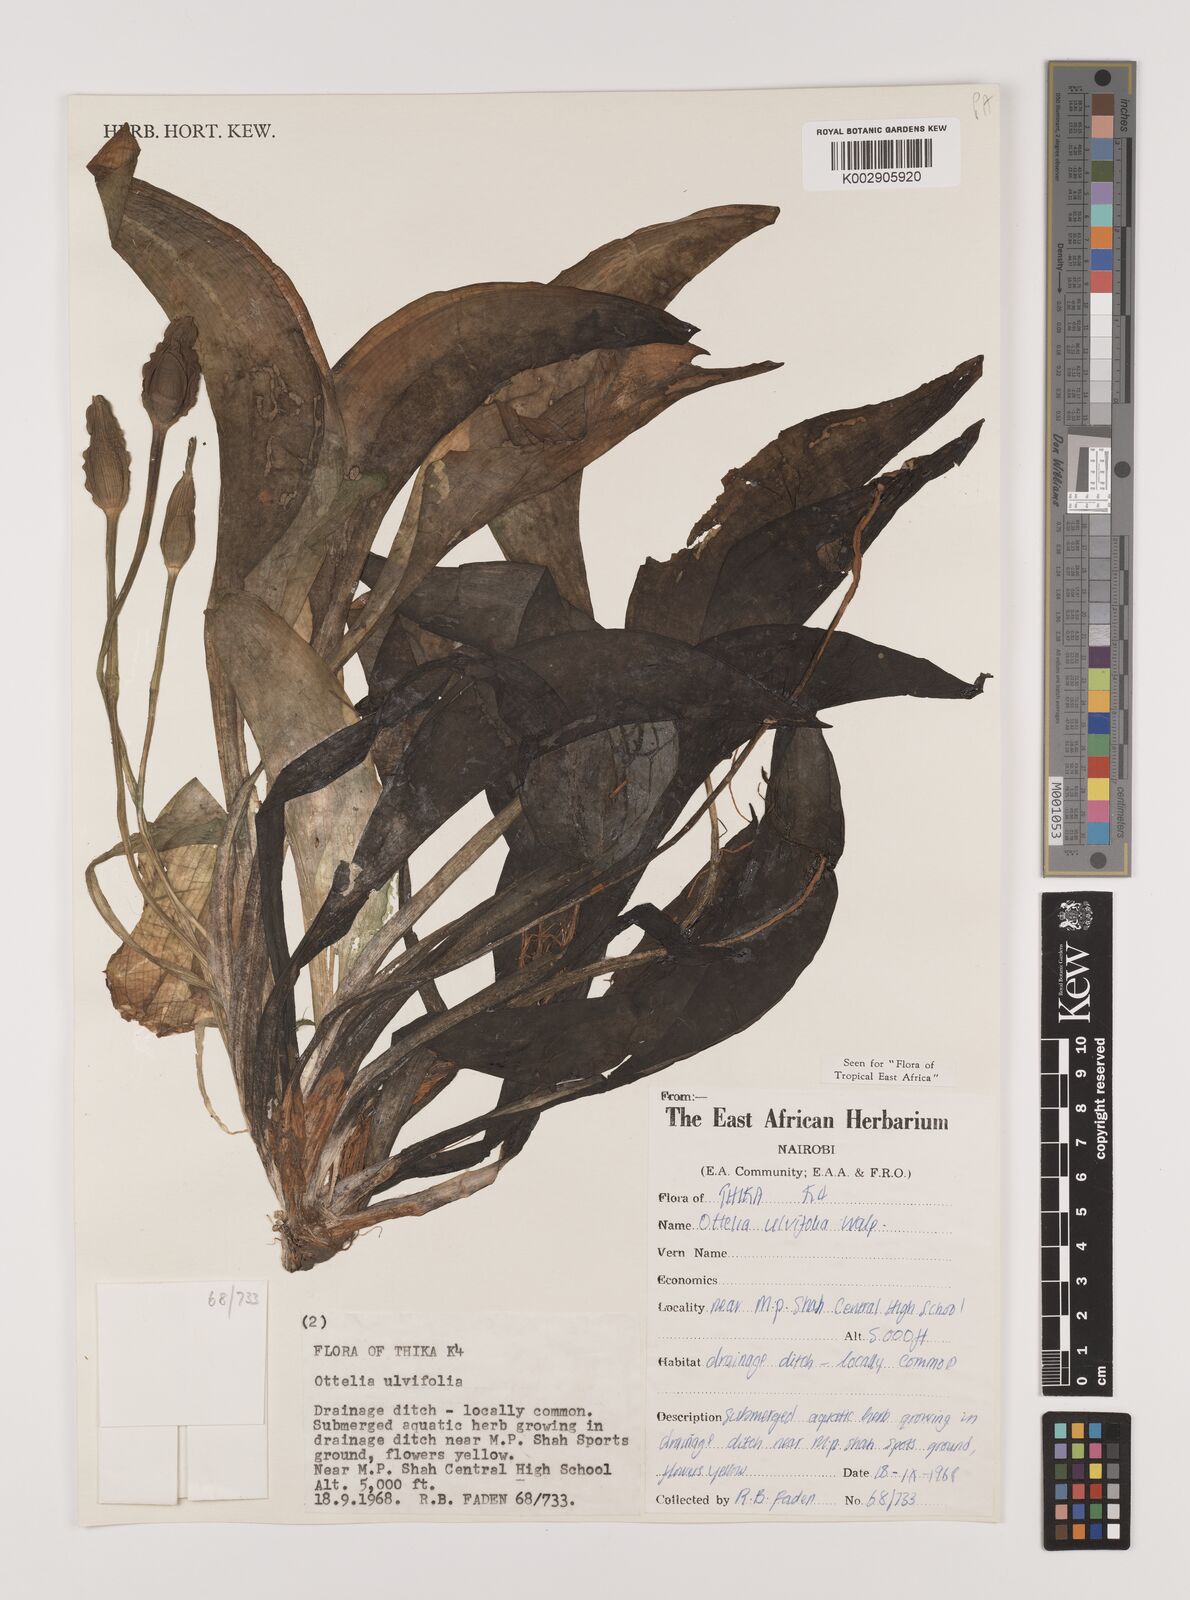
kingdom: Plantae
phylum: Tracheophyta
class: Liliopsida
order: Alismatales
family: Hydrocharitaceae
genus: Ottelia
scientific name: Ottelia ulvifolia
